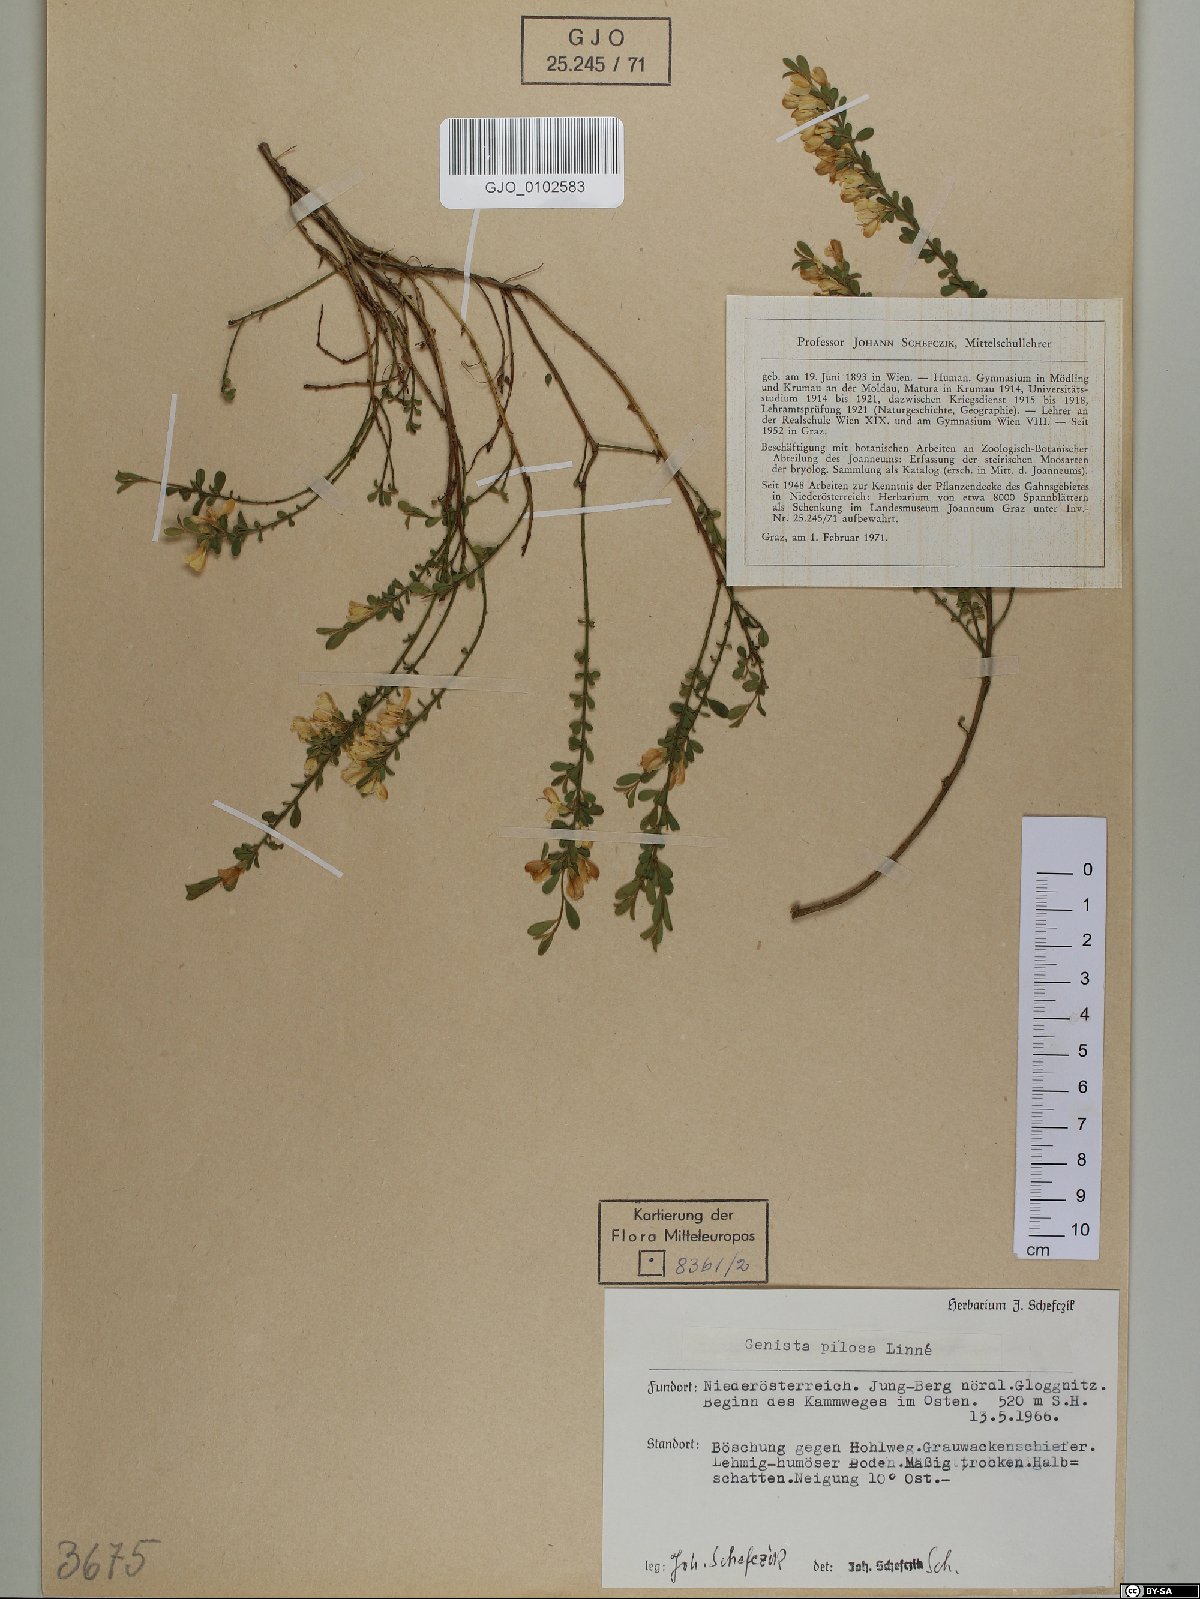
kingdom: Plantae
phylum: Tracheophyta
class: Magnoliopsida
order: Fabales
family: Fabaceae
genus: Genista
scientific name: Genista pilosa
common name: Hairy greenweed
